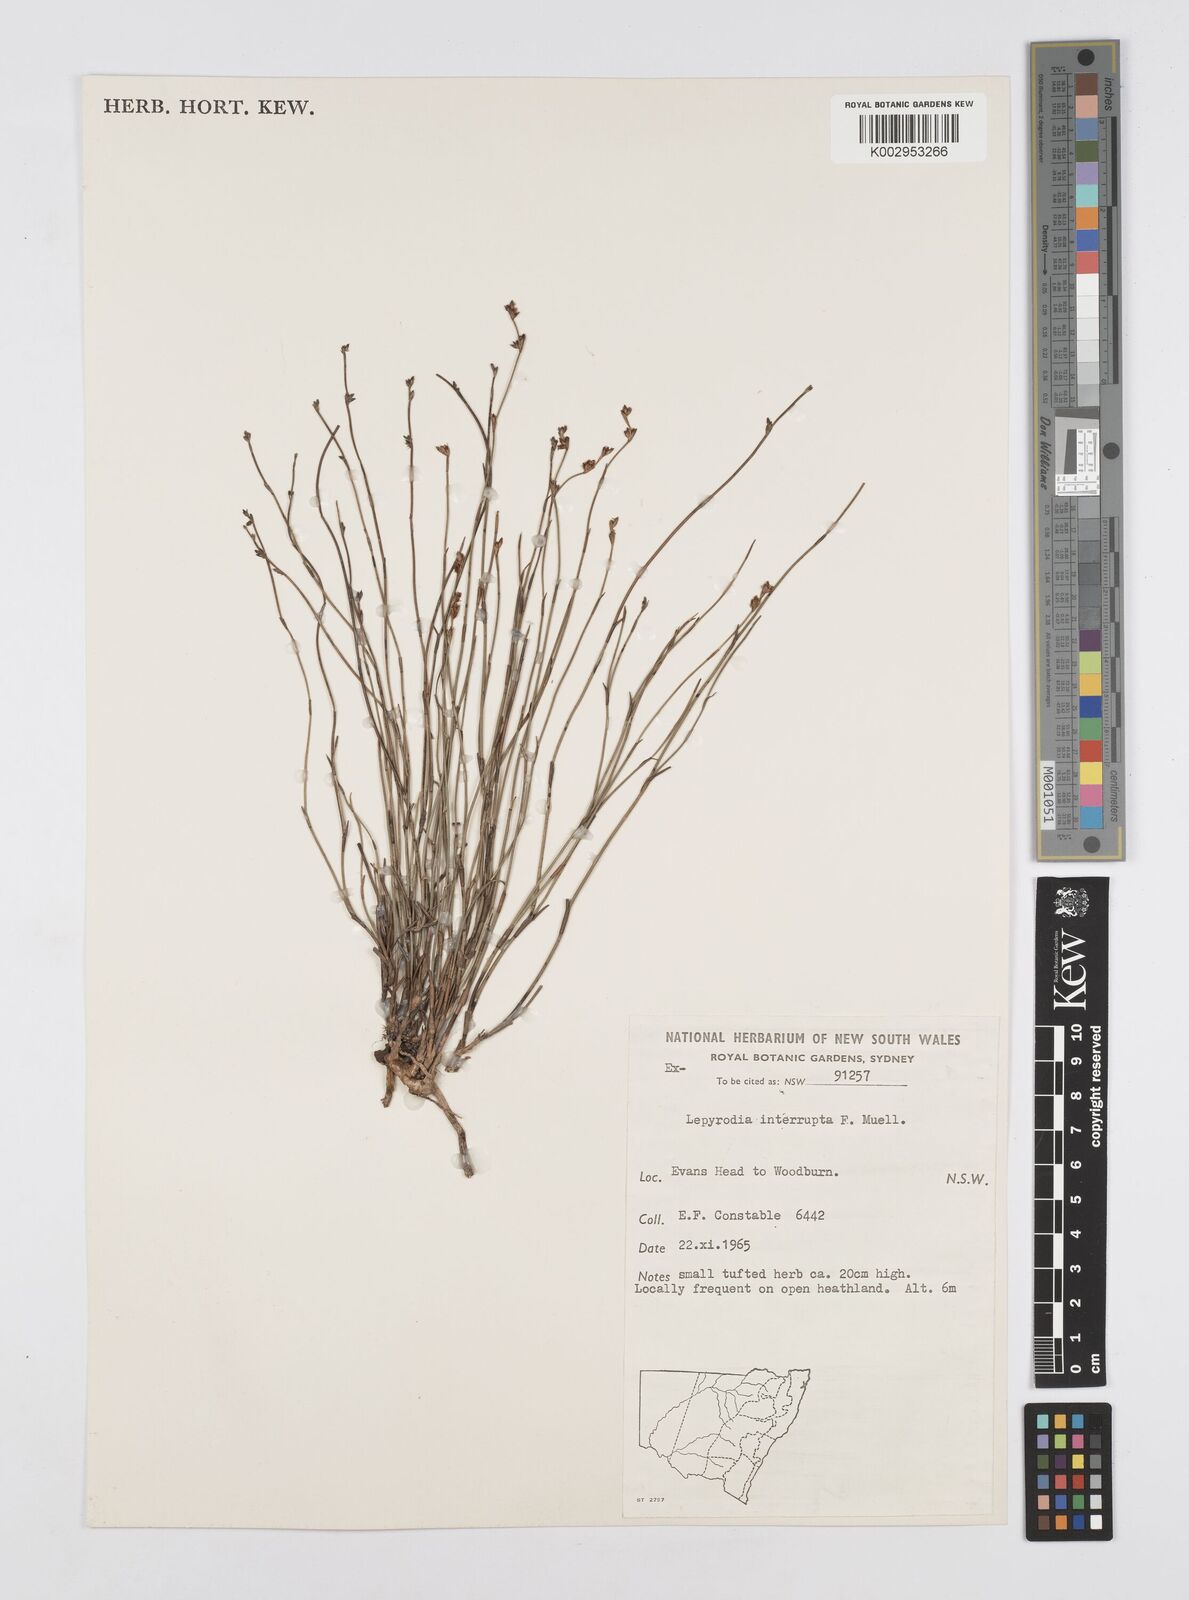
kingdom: Plantae
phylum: Tracheophyta
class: Liliopsida
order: Poales
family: Restionaceae
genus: Sporadanthus
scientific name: Sporadanthus interruptus
